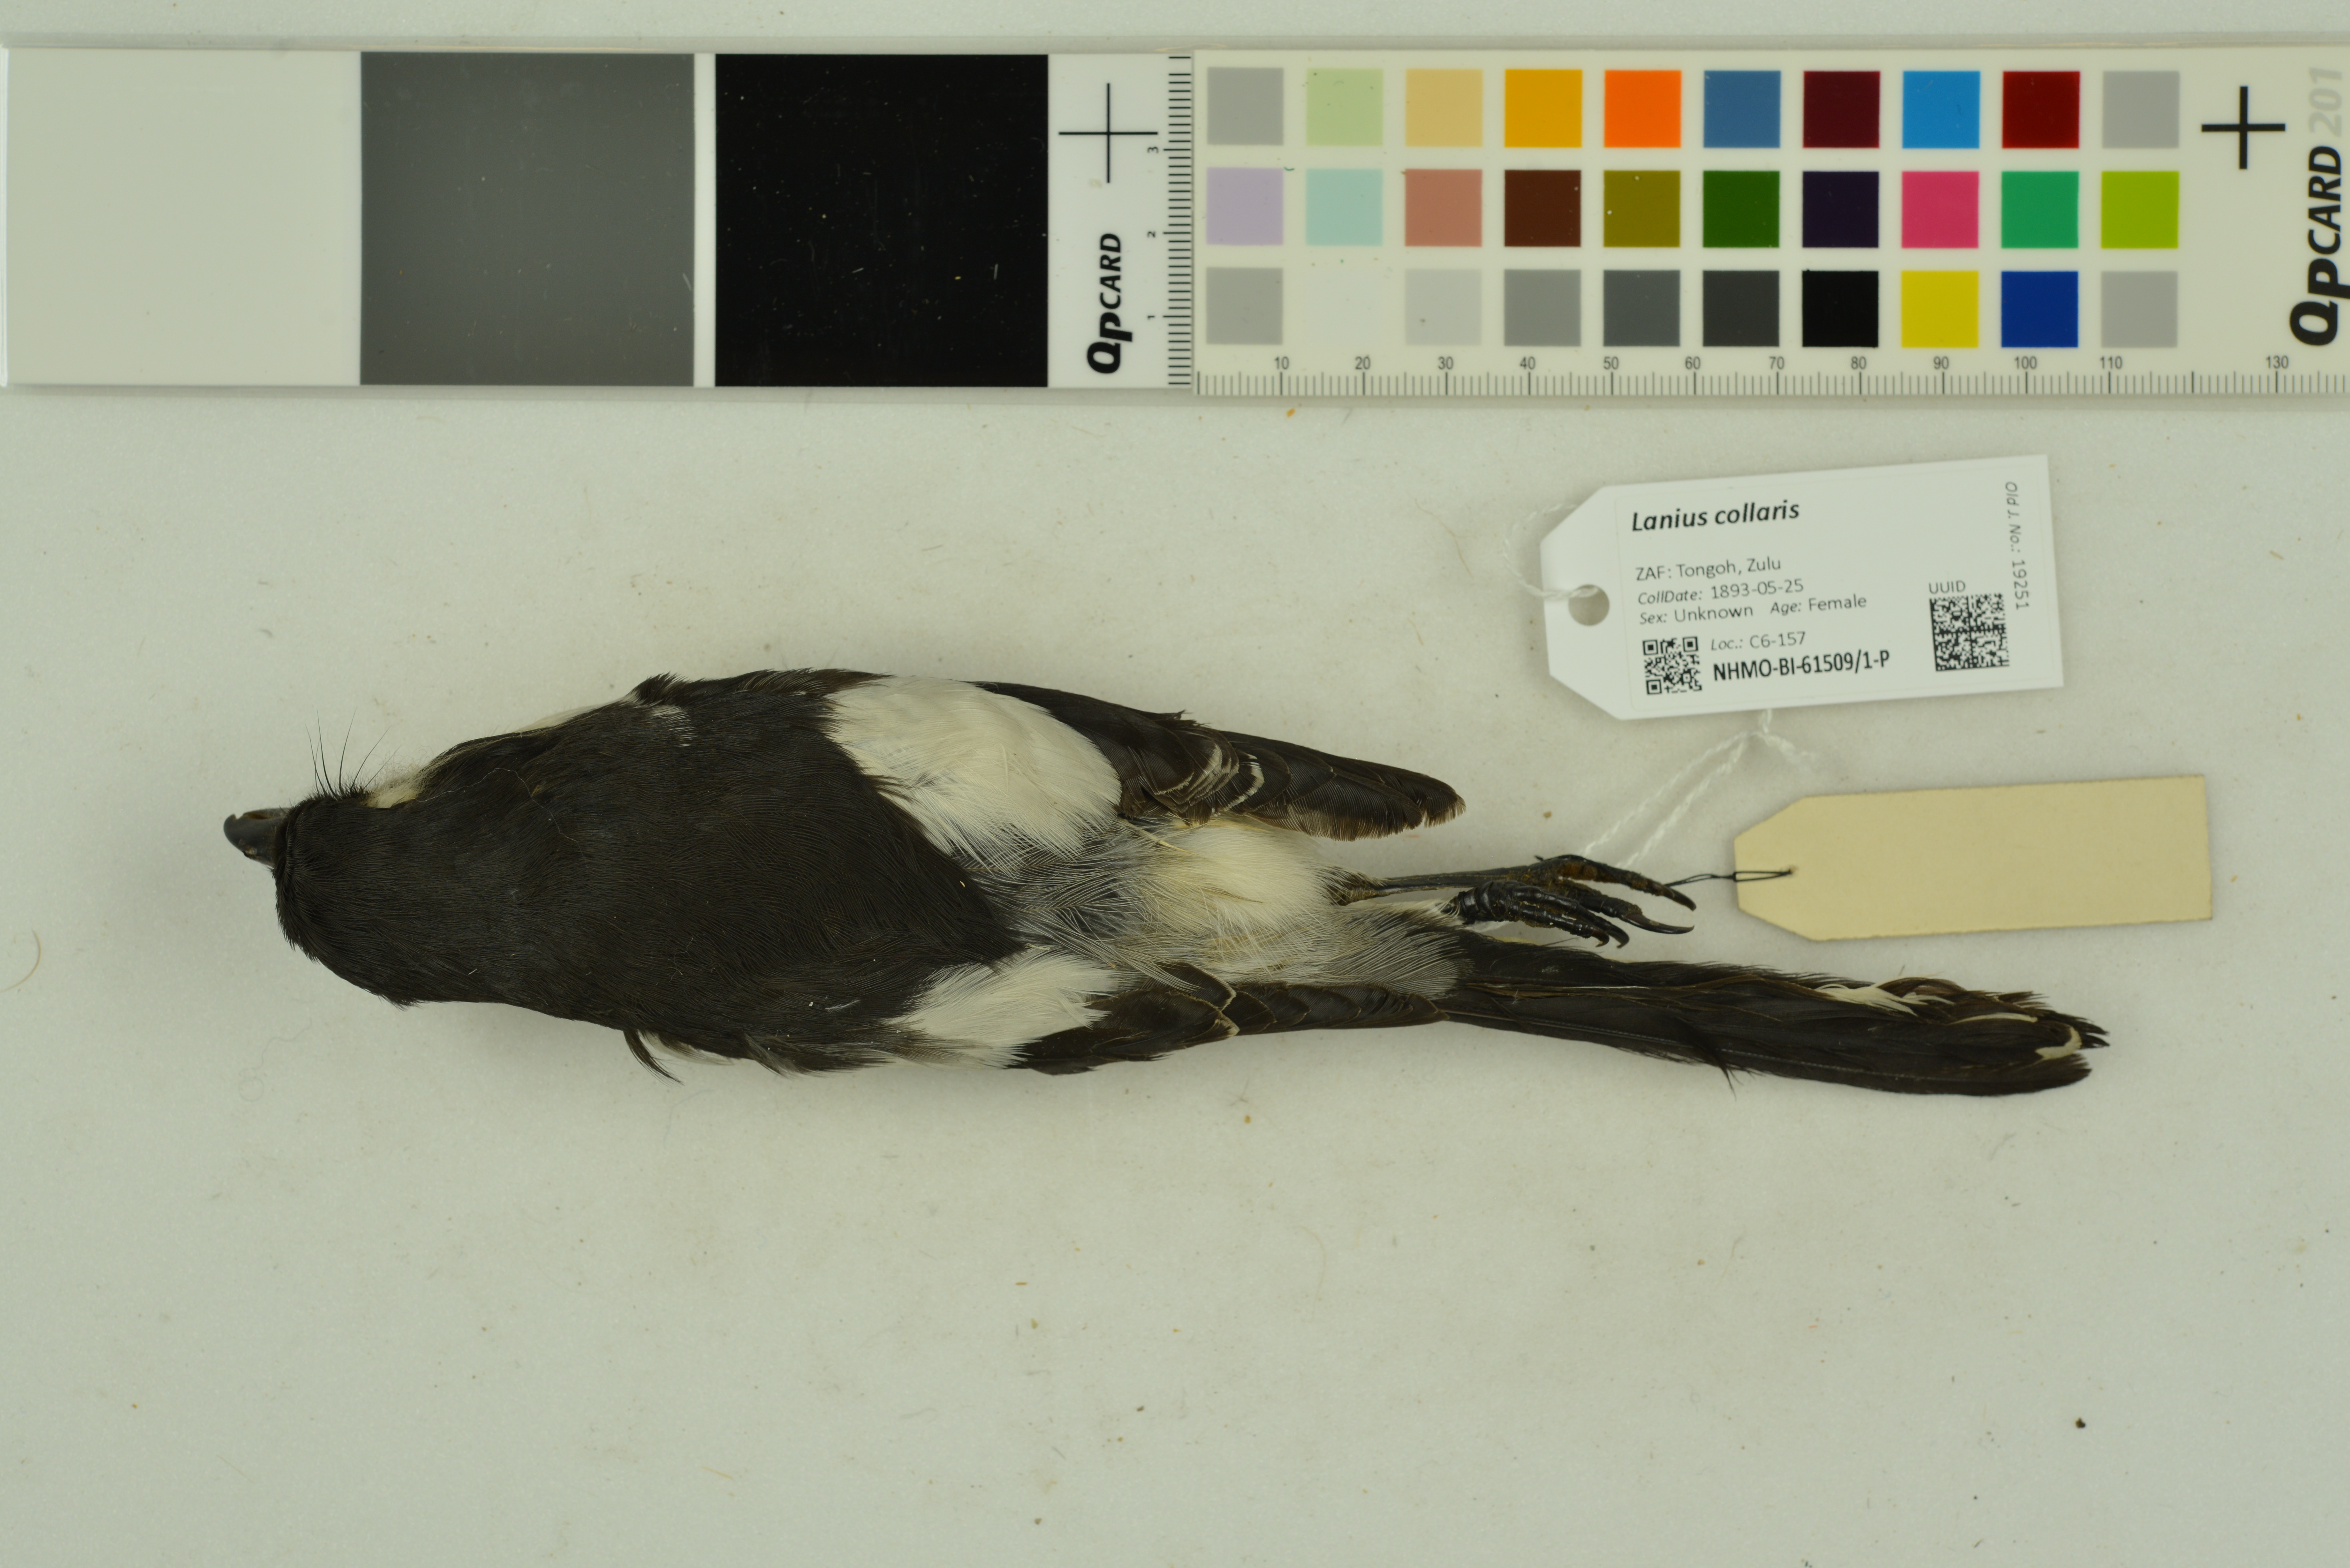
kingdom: Animalia
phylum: Chordata
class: Aves
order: Passeriformes
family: Laniidae
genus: Lanius
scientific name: Lanius collaris
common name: Southern fiscal
